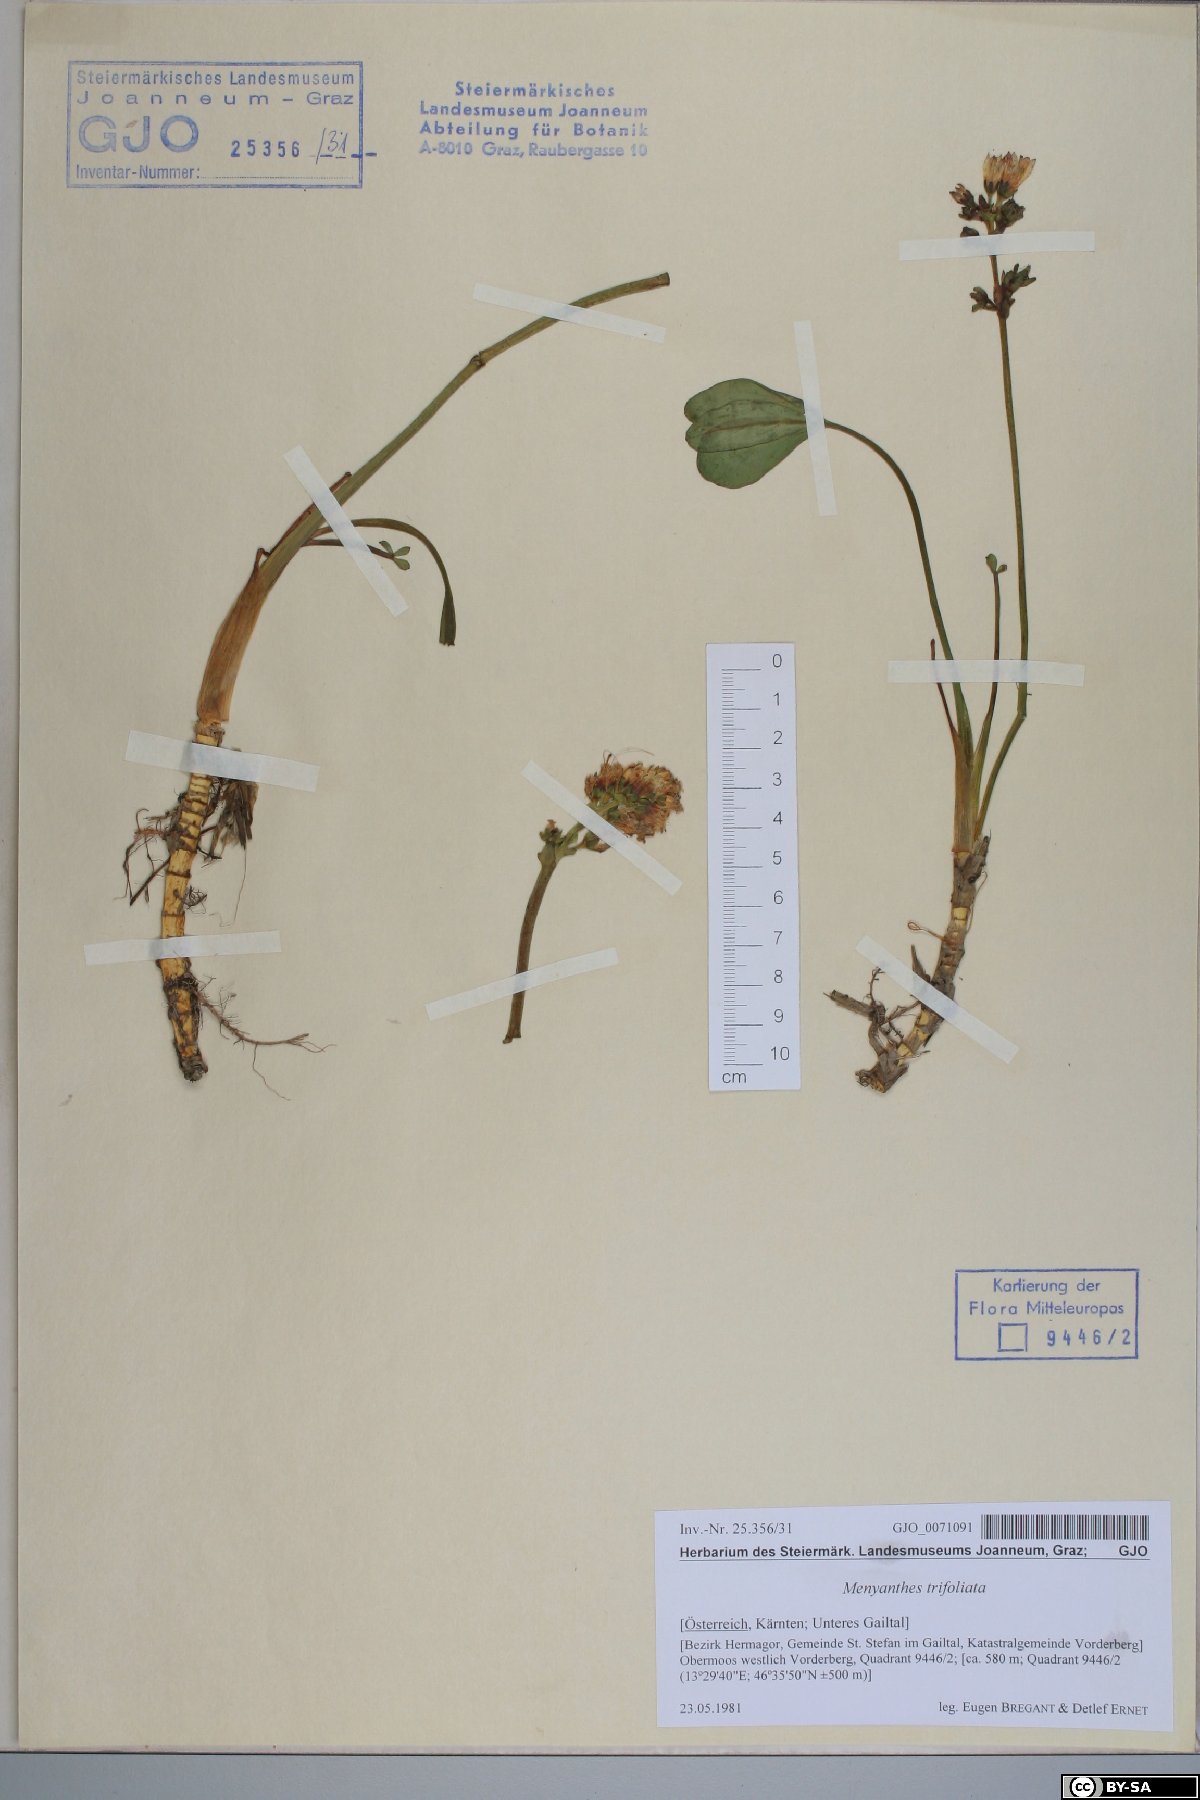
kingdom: Plantae
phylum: Tracheophyta
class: Magnoliopsida
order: Asterales
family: Menyanthaceae
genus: Menyanthes
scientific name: Menyanthes trifoliata
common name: Bogbean
